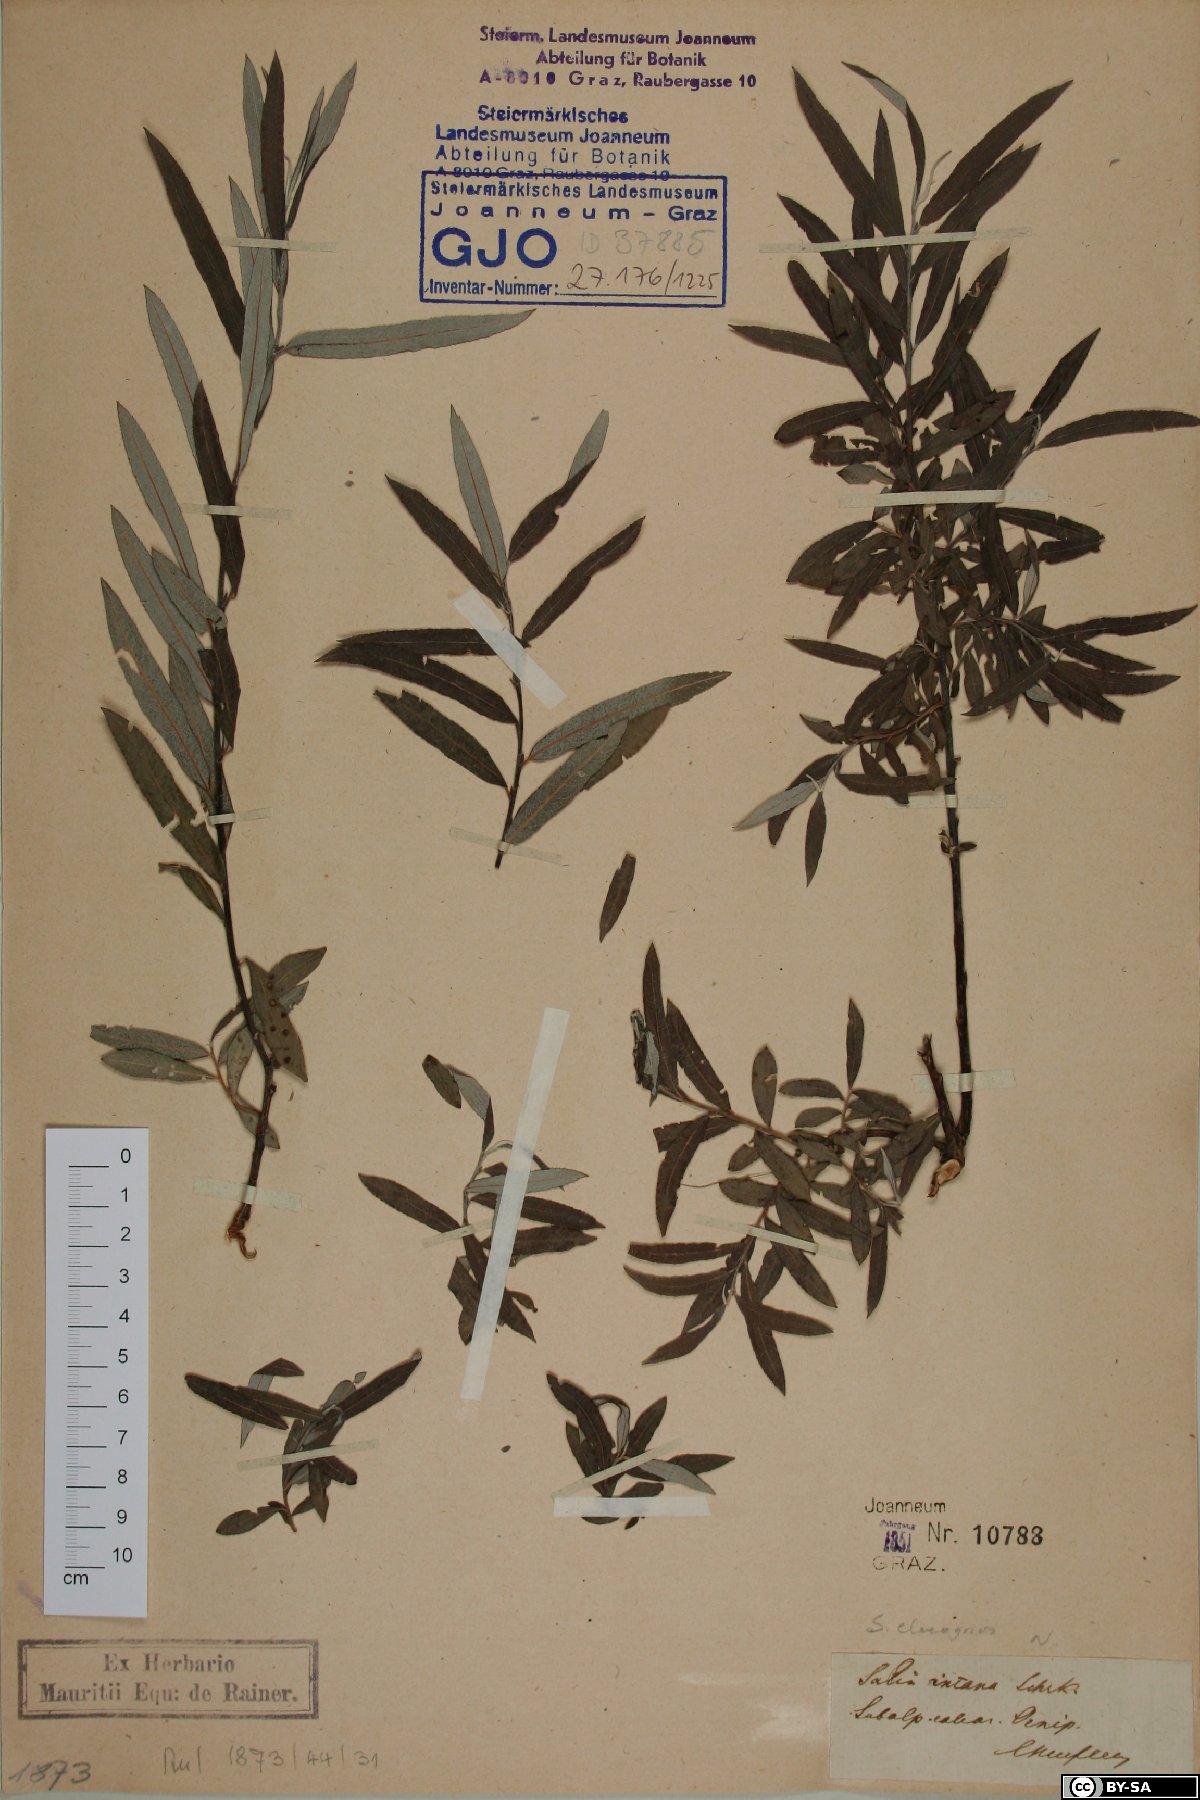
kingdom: Plantae
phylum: Tracheophyta
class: Magnoliopsida
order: Malpighiales
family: Salicaceae
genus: Salix
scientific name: Salix eleagnos
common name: Elaeagnus willow
